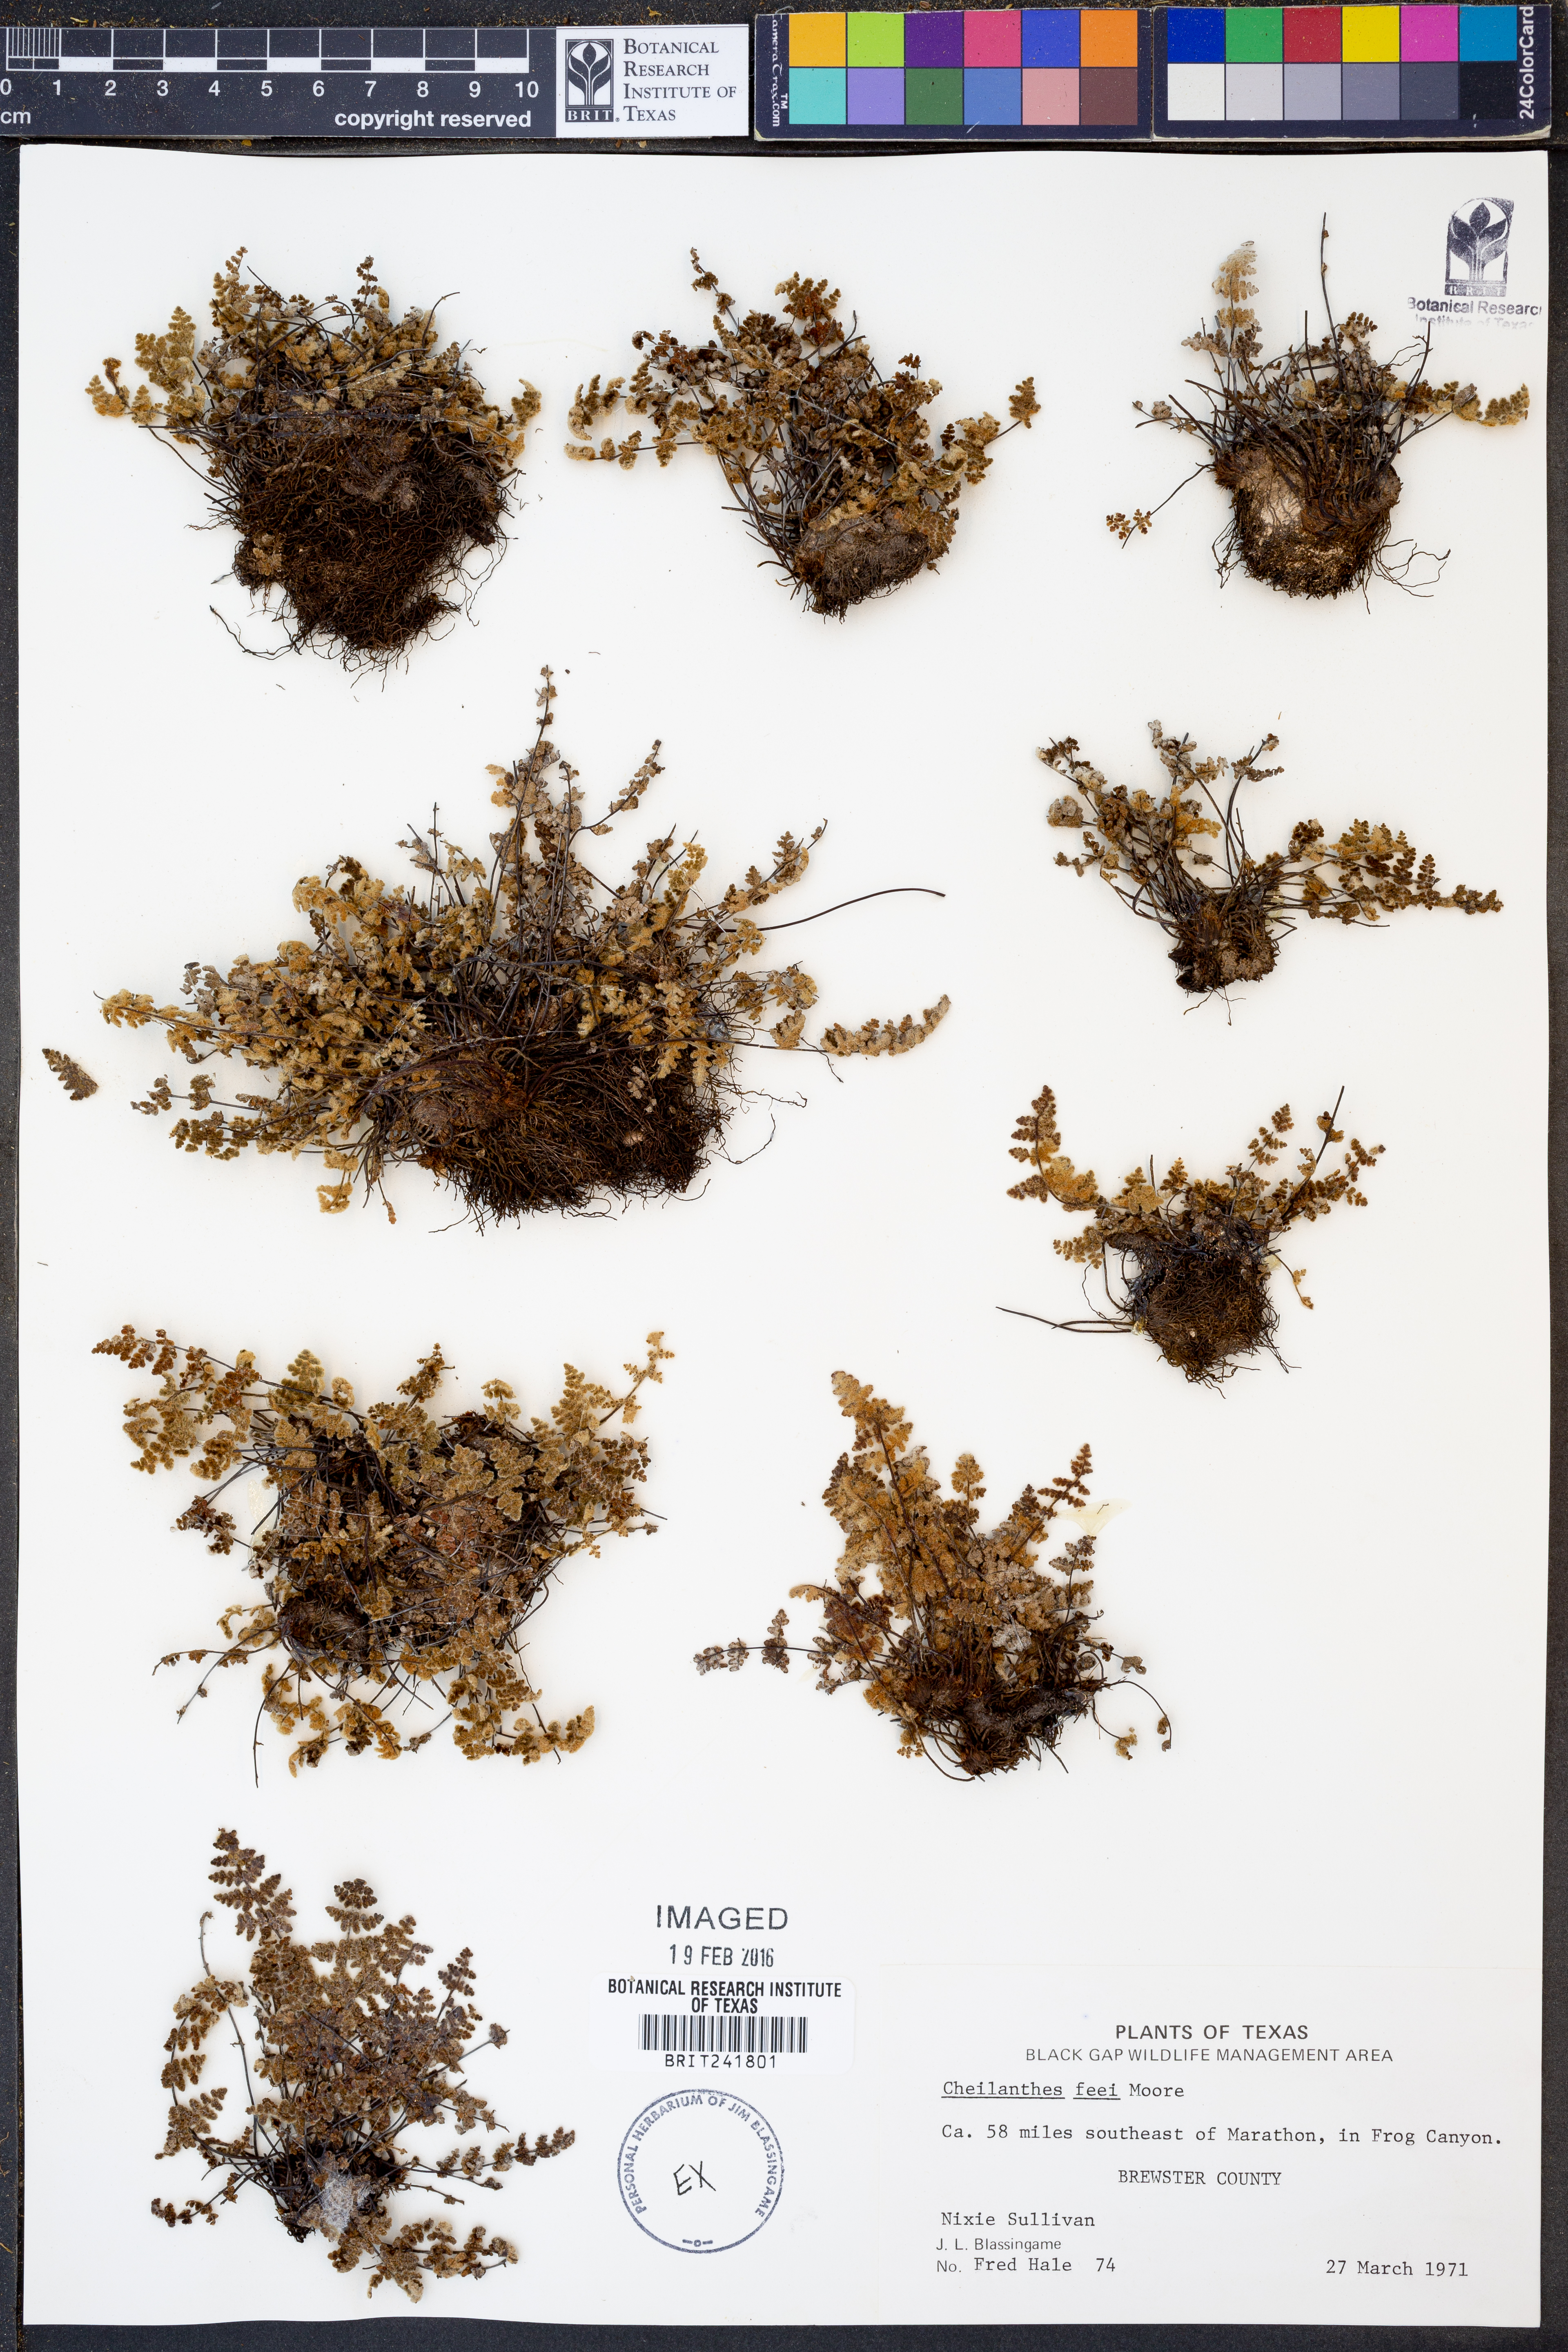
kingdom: Plantae
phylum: Tracheophyta
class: Polypodiopsida
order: Polypodiales
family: Pteridaceae
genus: Myriopteris
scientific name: Myriopteris gracilis
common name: Fee's lip fern
